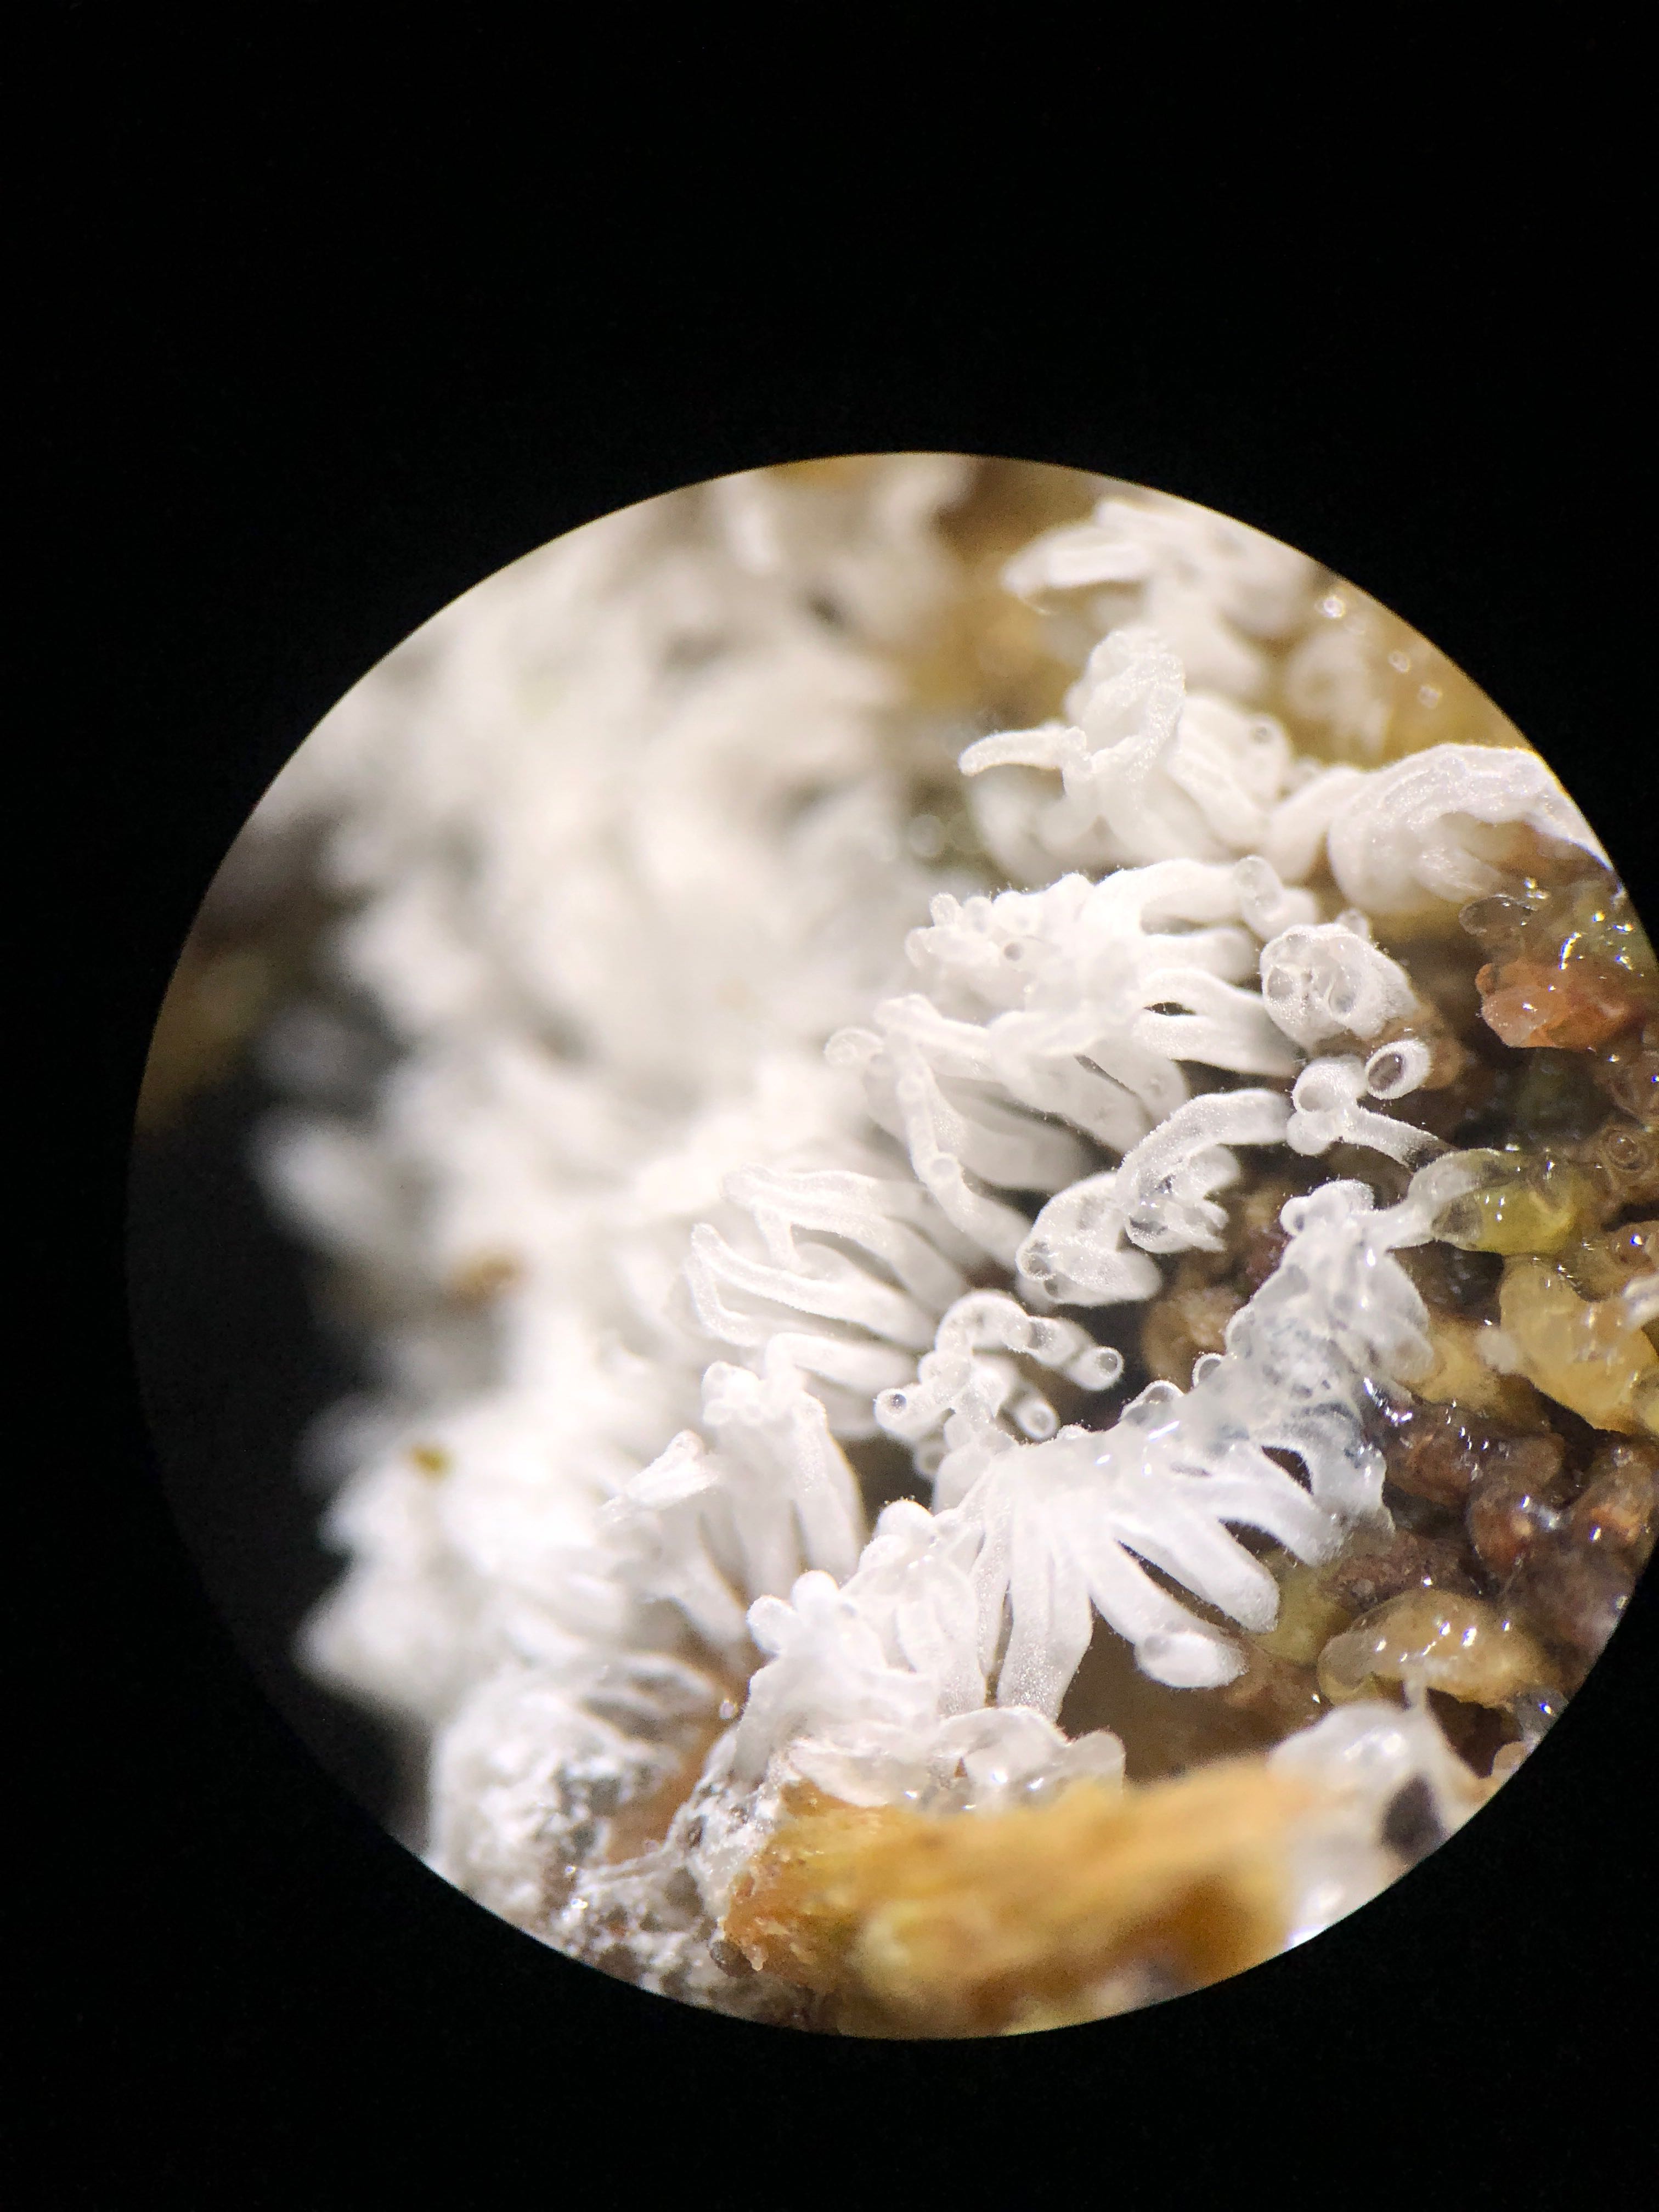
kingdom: Protozoa
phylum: Mycetozoa
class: Protosteliomycetes
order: Ceratiomyxales
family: Ceratiomyxaceae
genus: Ceratiomyxa
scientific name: Ceratiomyxa fruticulosa
